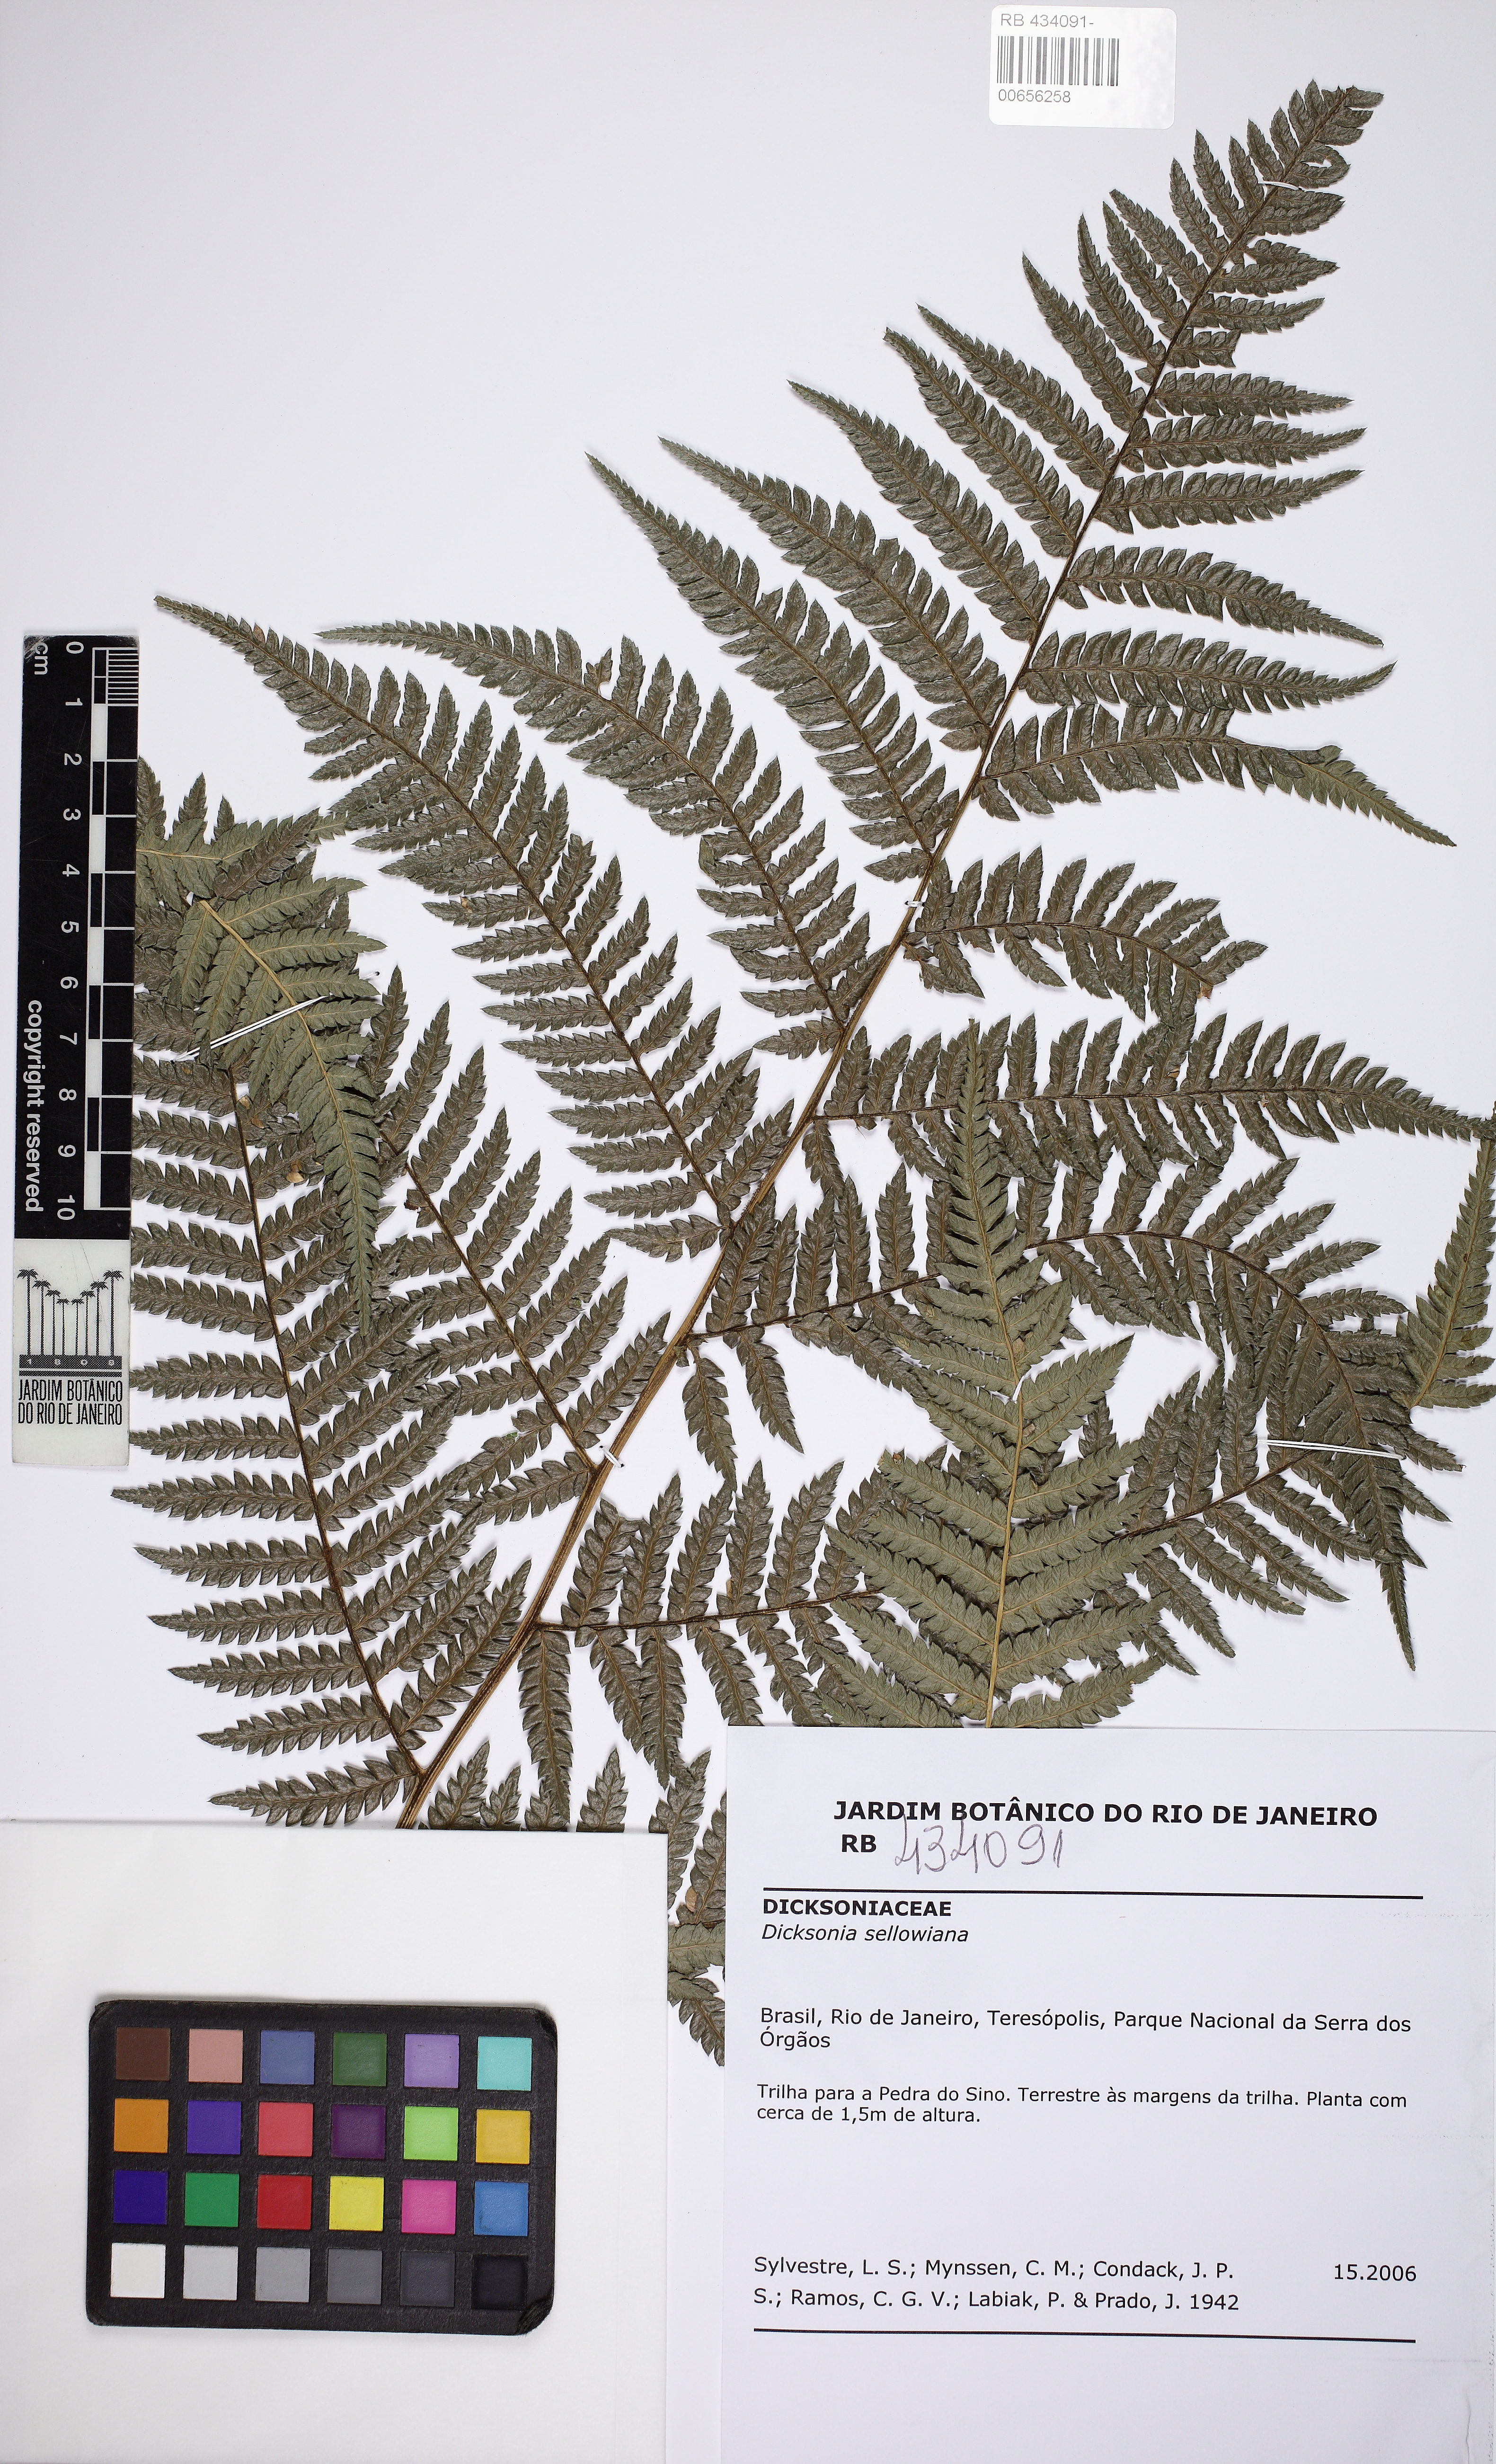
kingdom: Plantae
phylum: Tracheophyta
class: Polypodiopsida
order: Cyatheales
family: Dicksoniaceae
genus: Dicksonia
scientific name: Dicksonia sellowiana
